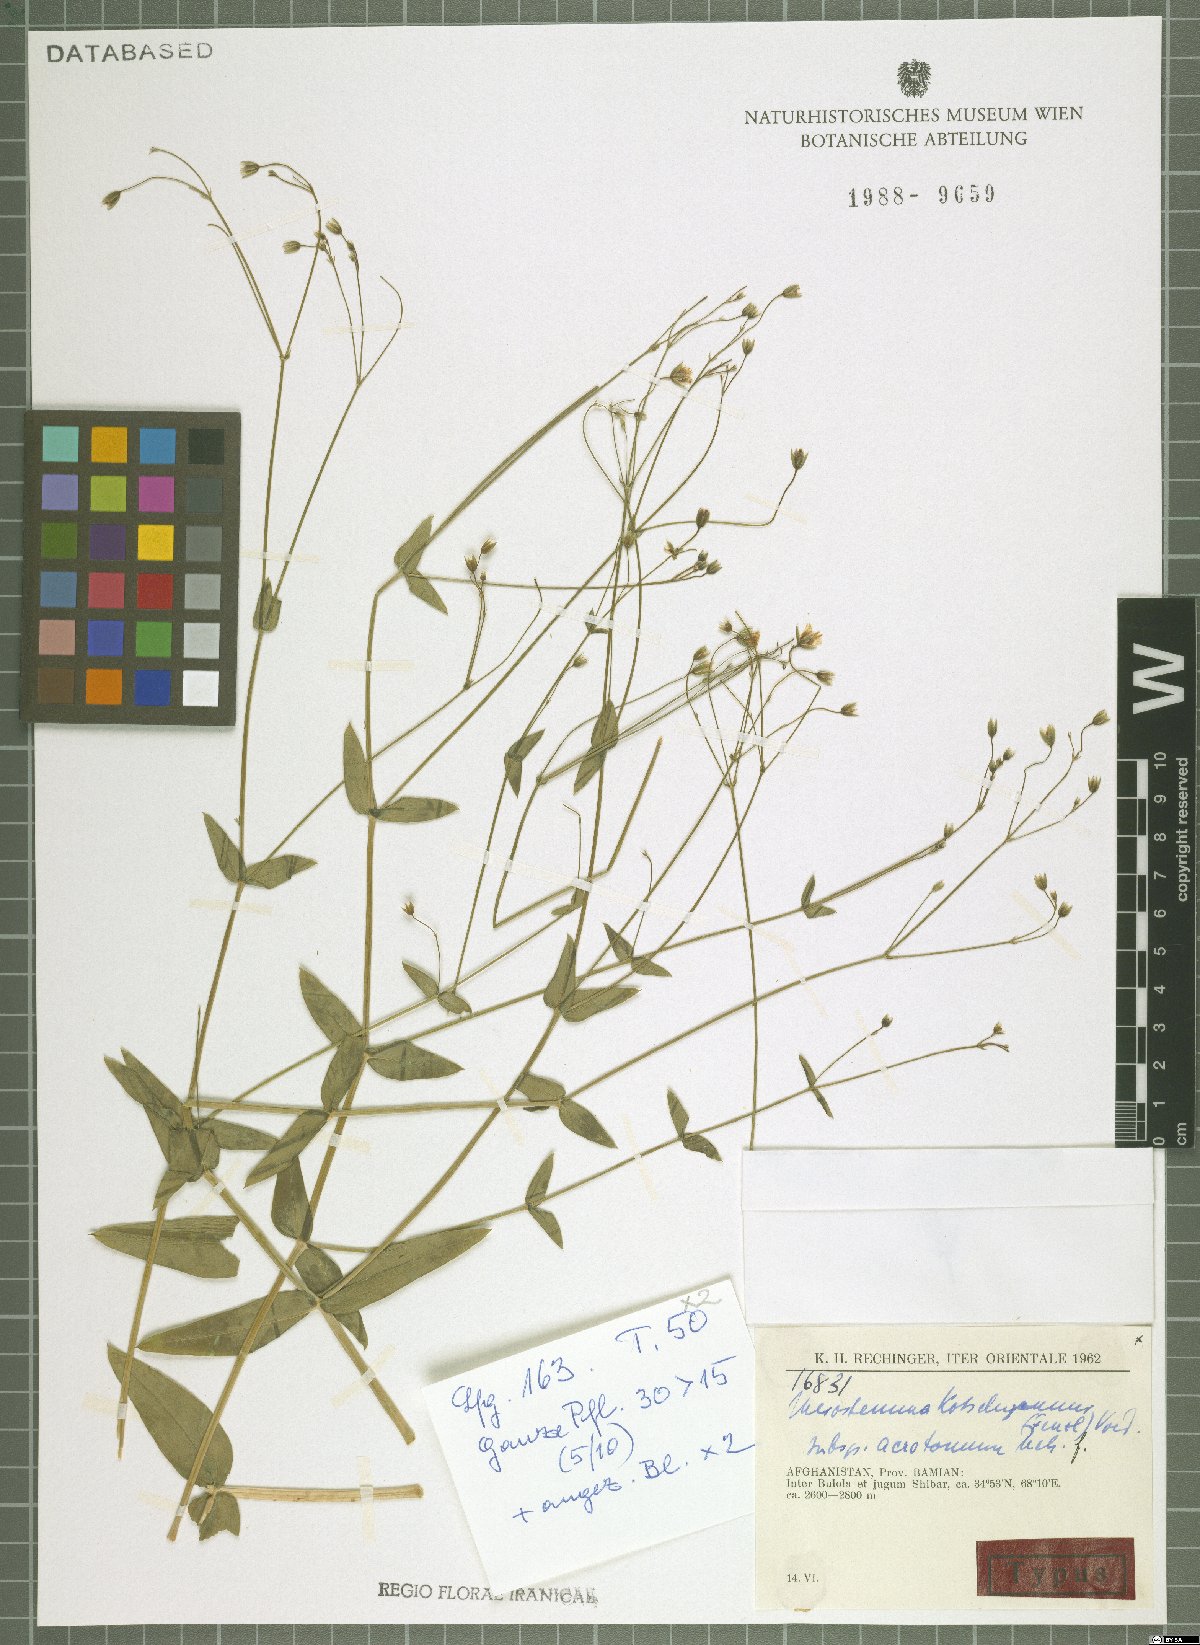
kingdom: Plantae
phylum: Tracheophyta
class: Magnoliopsida
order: Caryophyllales
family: Caryophyllaceae
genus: Mesostemma
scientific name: Mesostemma kotschyanum
